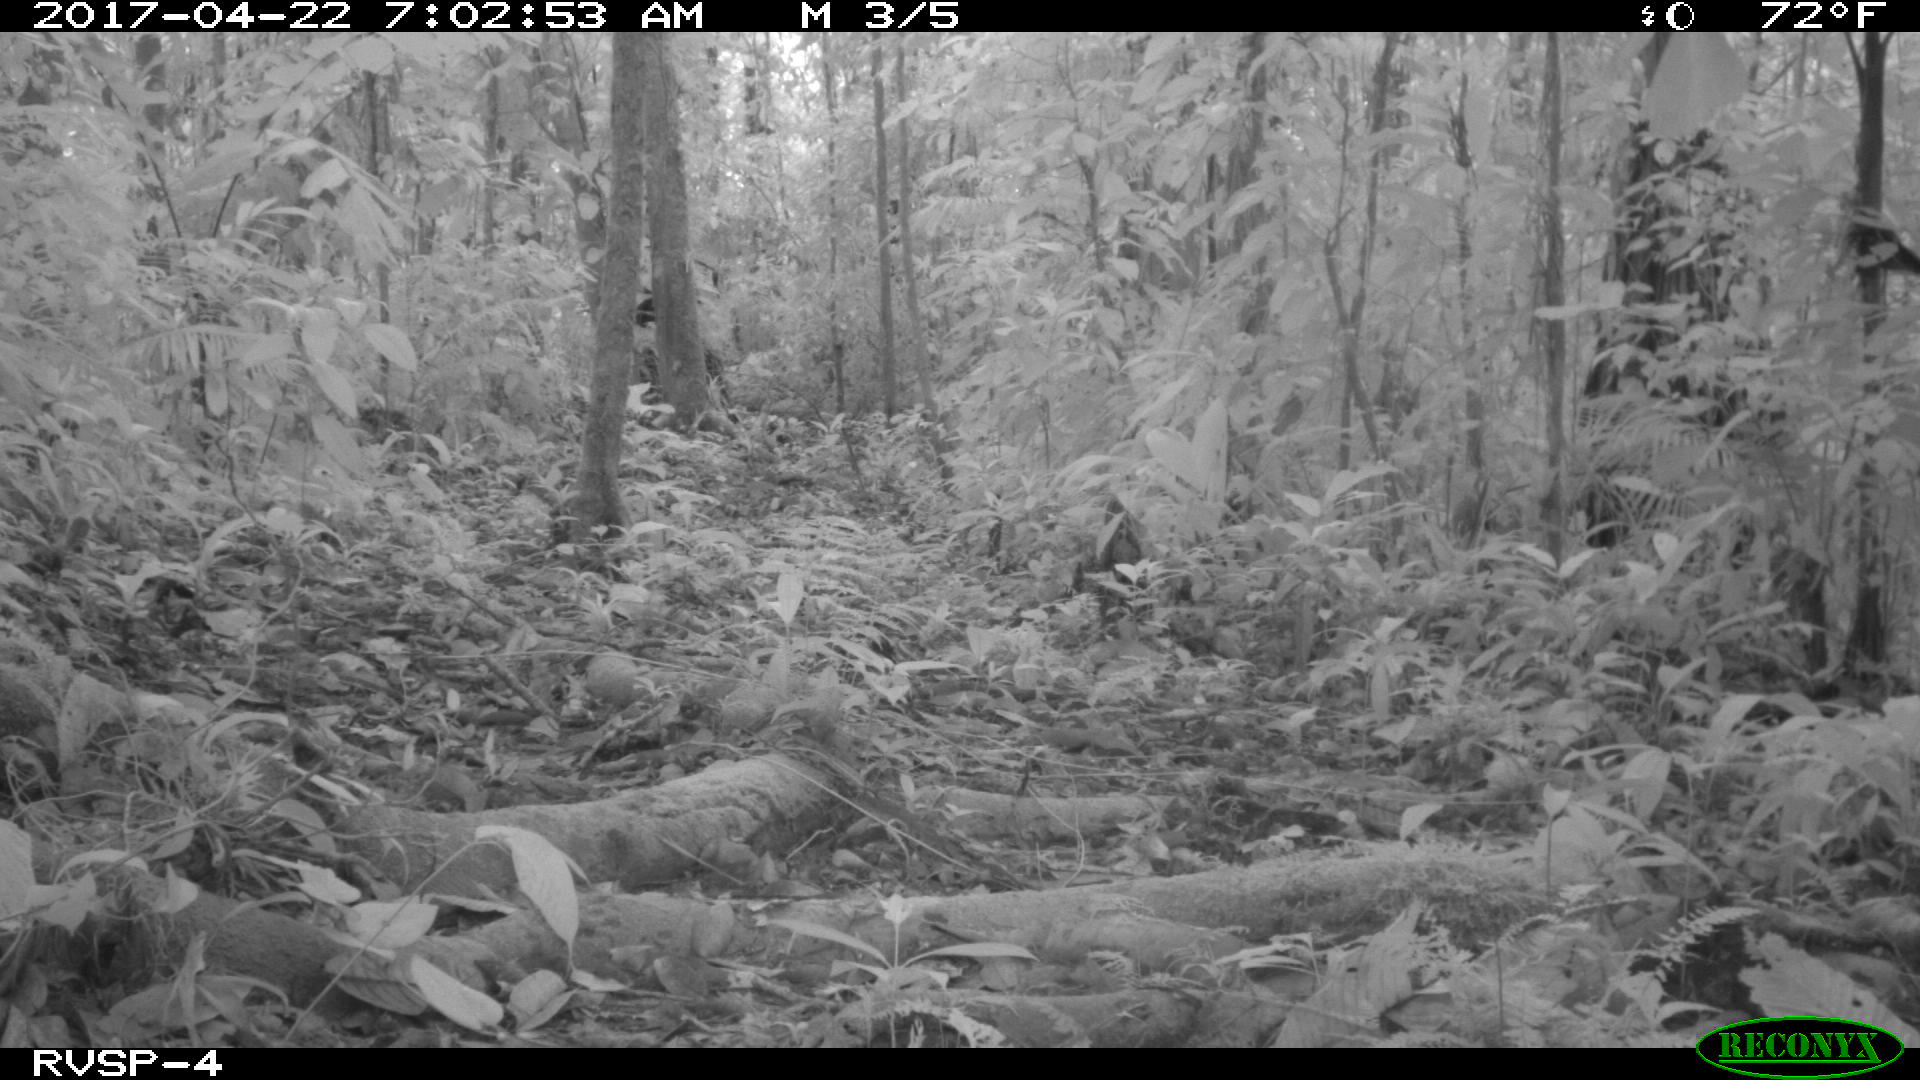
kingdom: Animalia
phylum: Chordata
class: Mammalia
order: Rodentia
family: Dasyproctidae
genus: Dasyprocta
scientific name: Dasyprocta punctata
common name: Central american agouti
